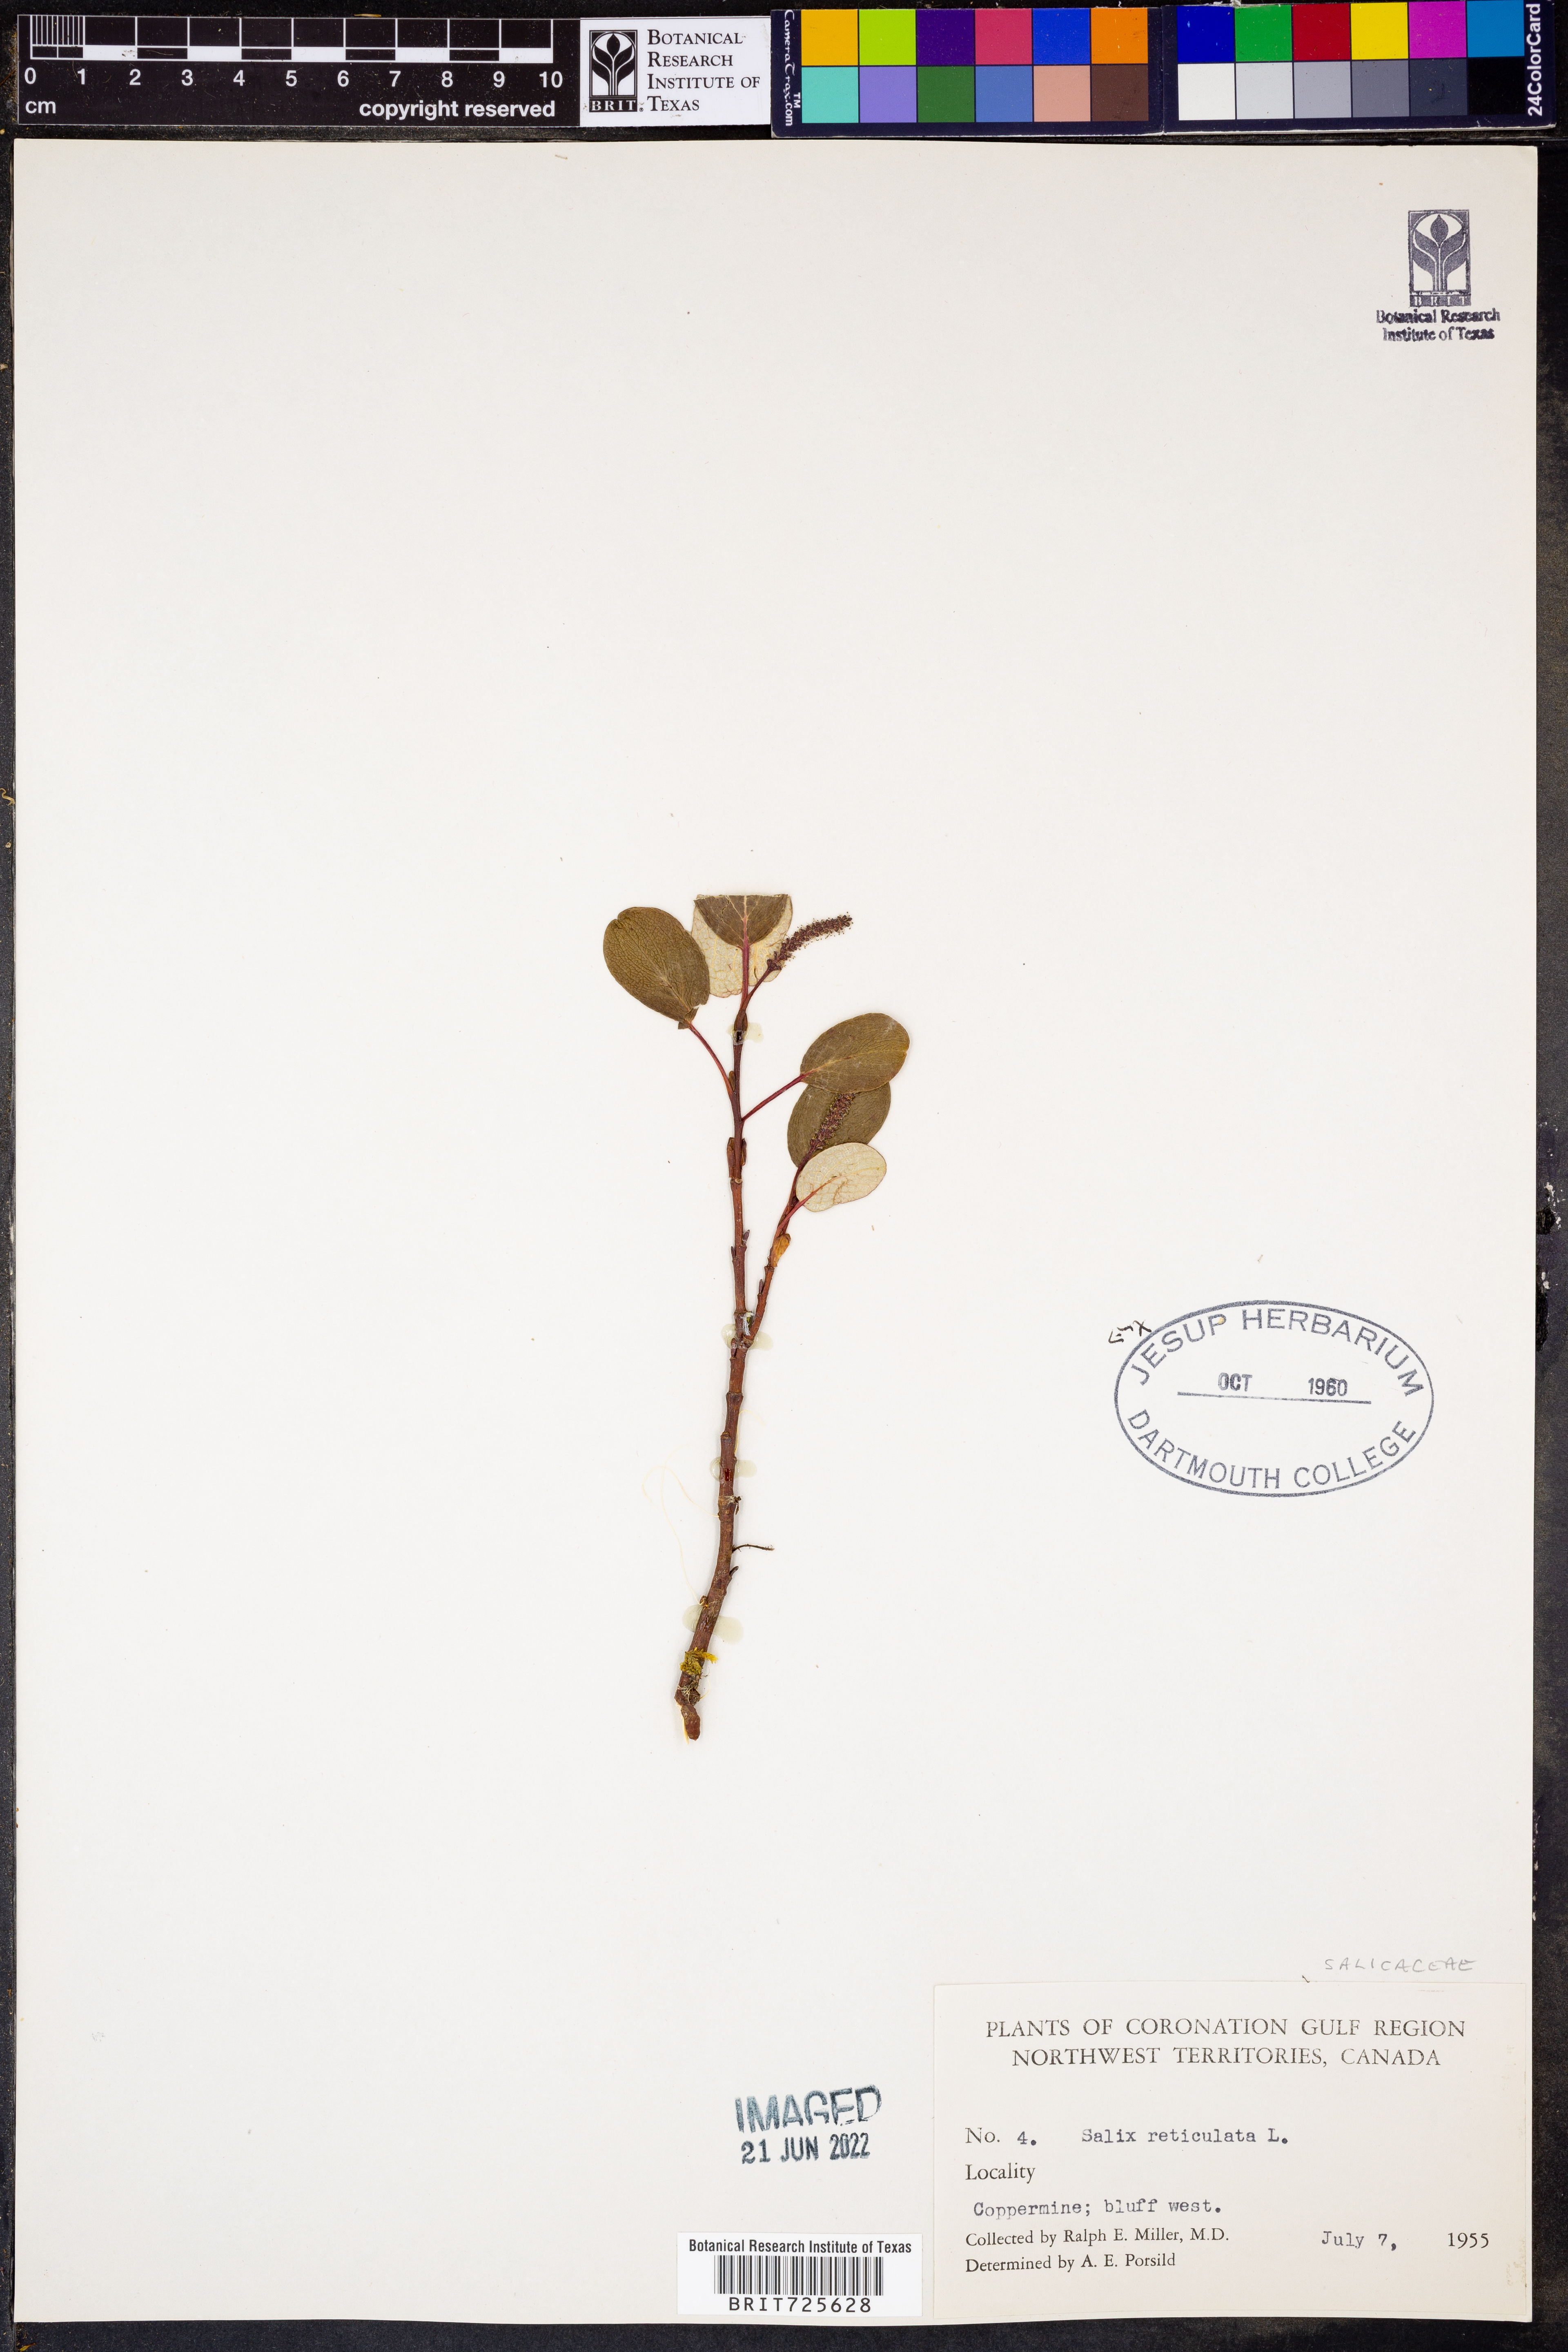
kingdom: Plantae
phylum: Tracheophyta
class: Magnoliopsida
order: Malpighiales
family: Salicaceae
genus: Salix
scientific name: Salix
